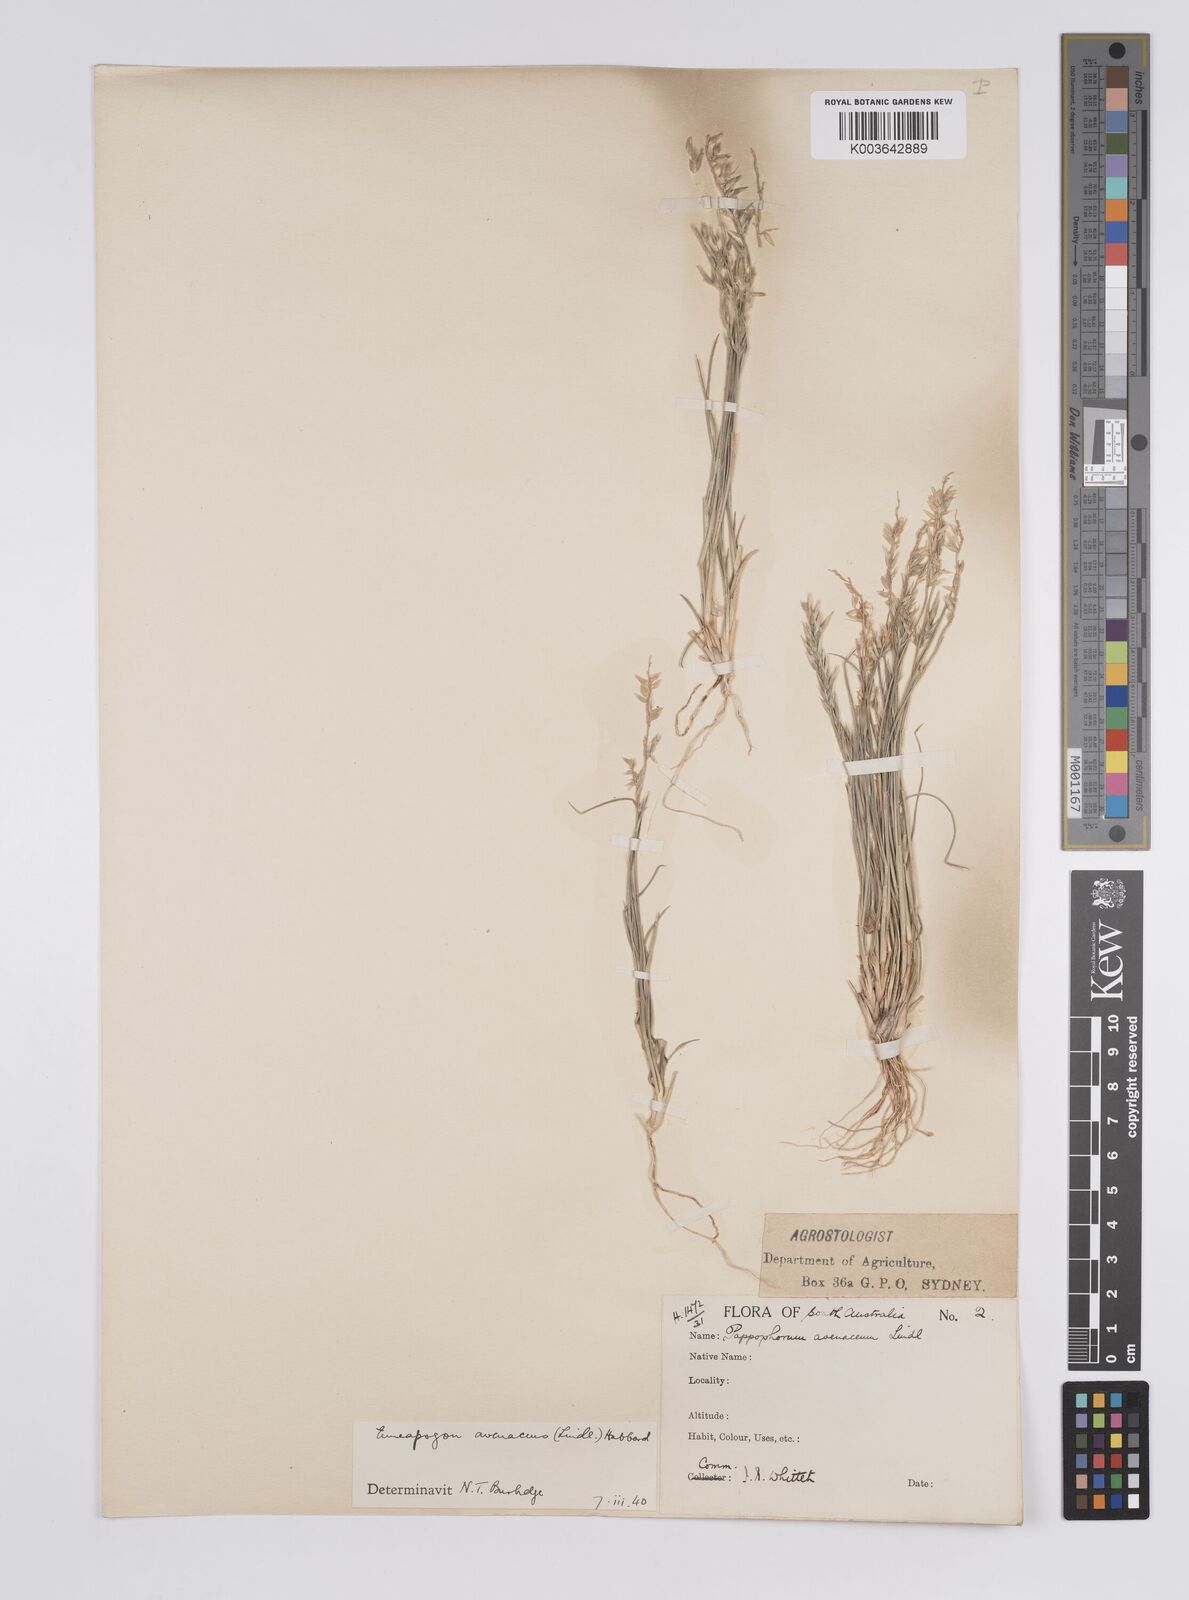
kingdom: Plantae
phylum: Tracheophyta
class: Liliopsida
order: Poales
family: Poaceae
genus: Enneapogon
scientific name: Enneapogon avenaceus
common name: Hairy oat grass
